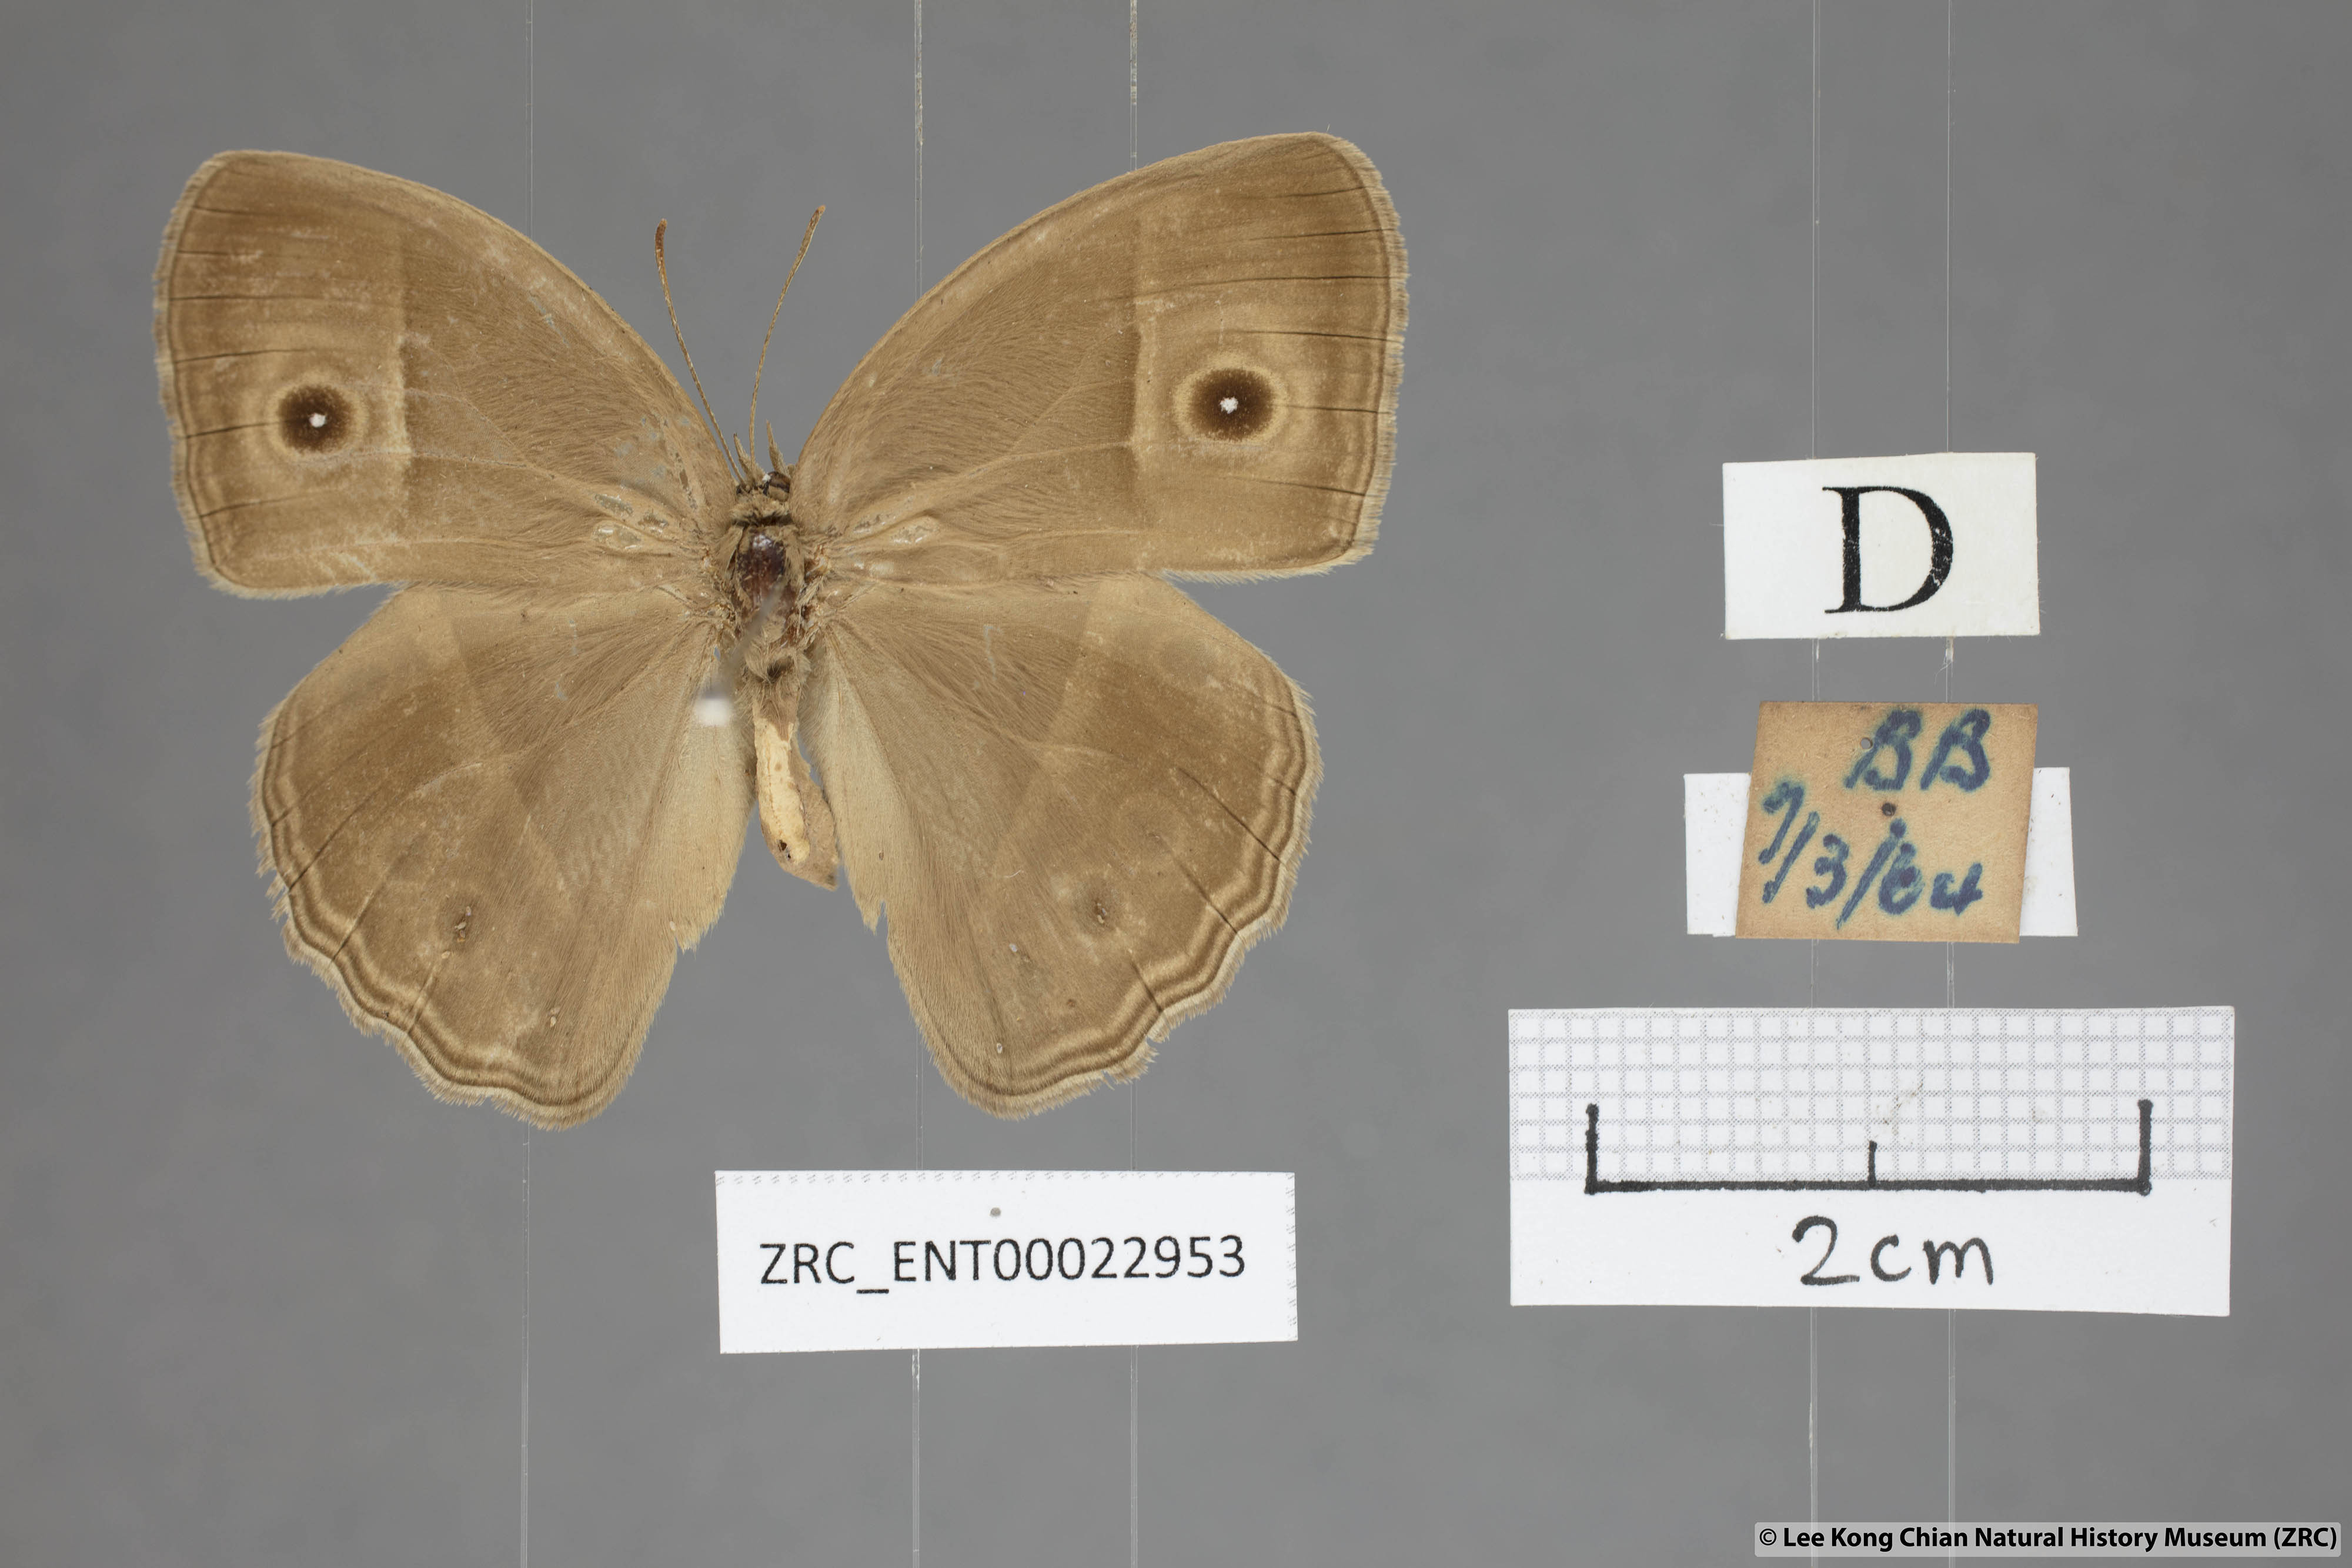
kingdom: Animalia
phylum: Arthropoda
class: Insecta
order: Lepidoptera
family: Nymphalidae
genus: Mycalesis
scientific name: Mycalesis mineus
